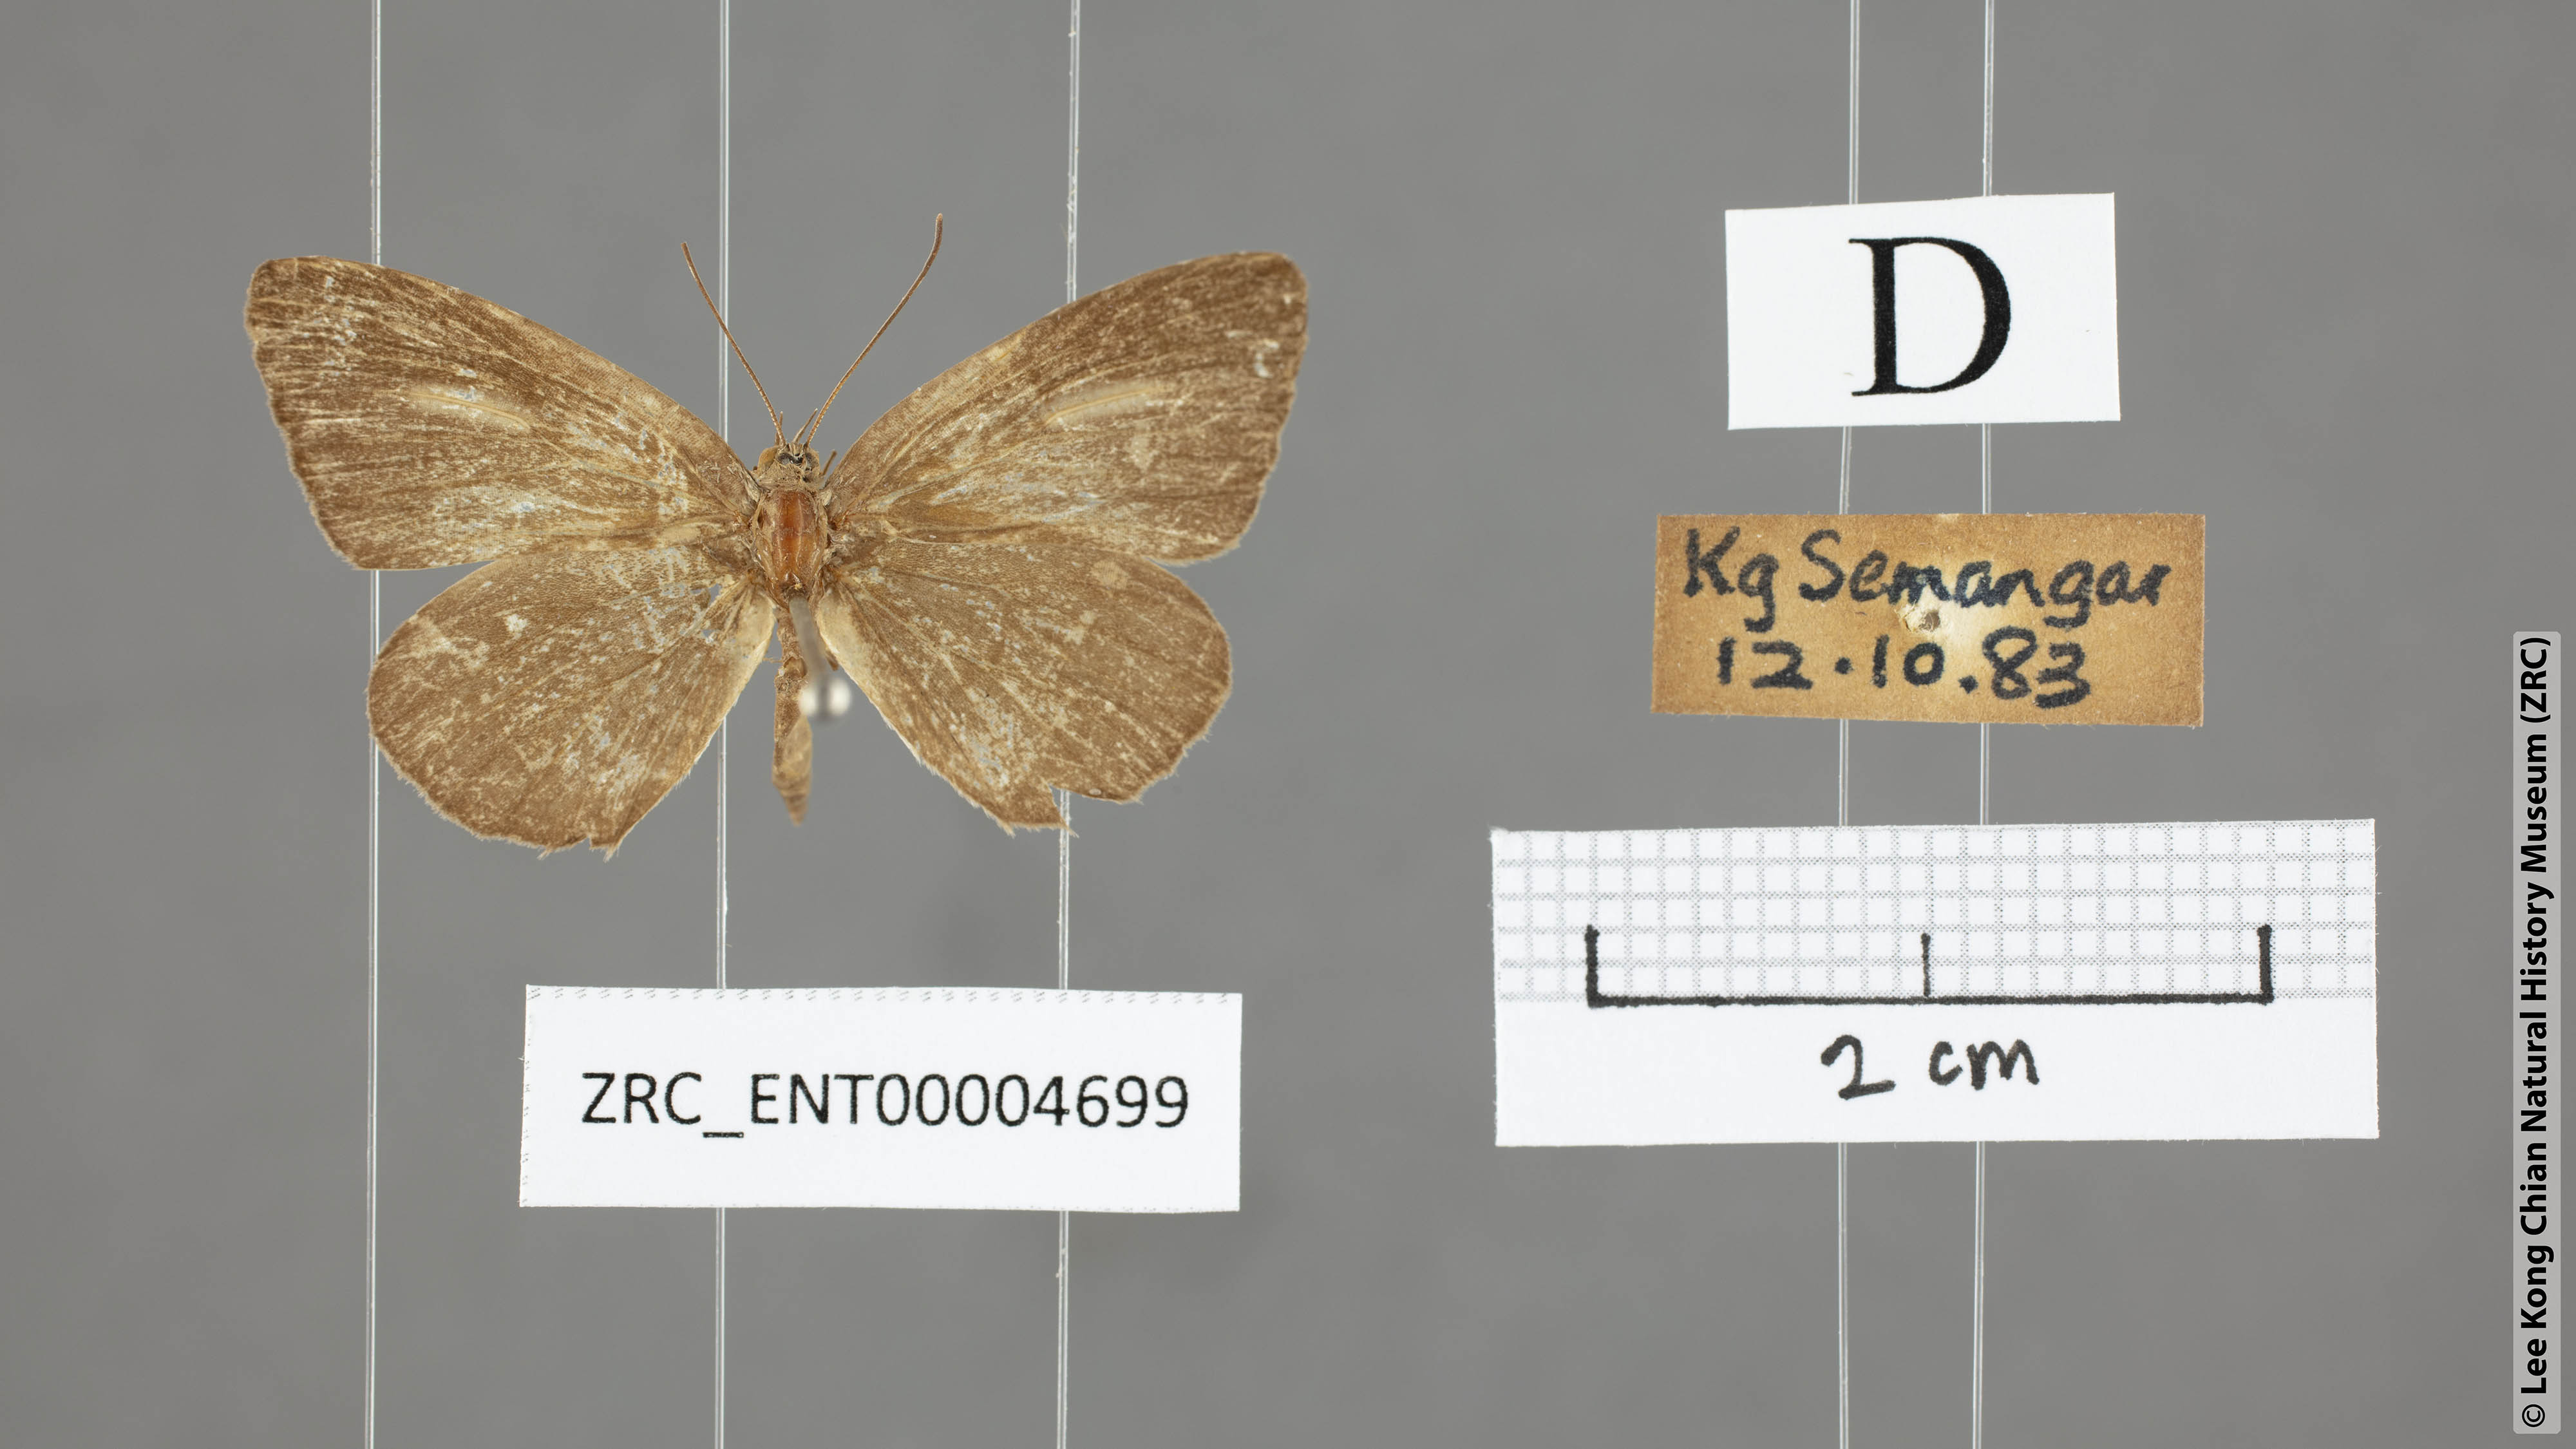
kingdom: Animalia
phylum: Arthropoda
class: Insecta
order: Lepidoptera
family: Lycaenidae
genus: Allotinus
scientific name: Allotinus sarastes
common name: Peninsular darkie
